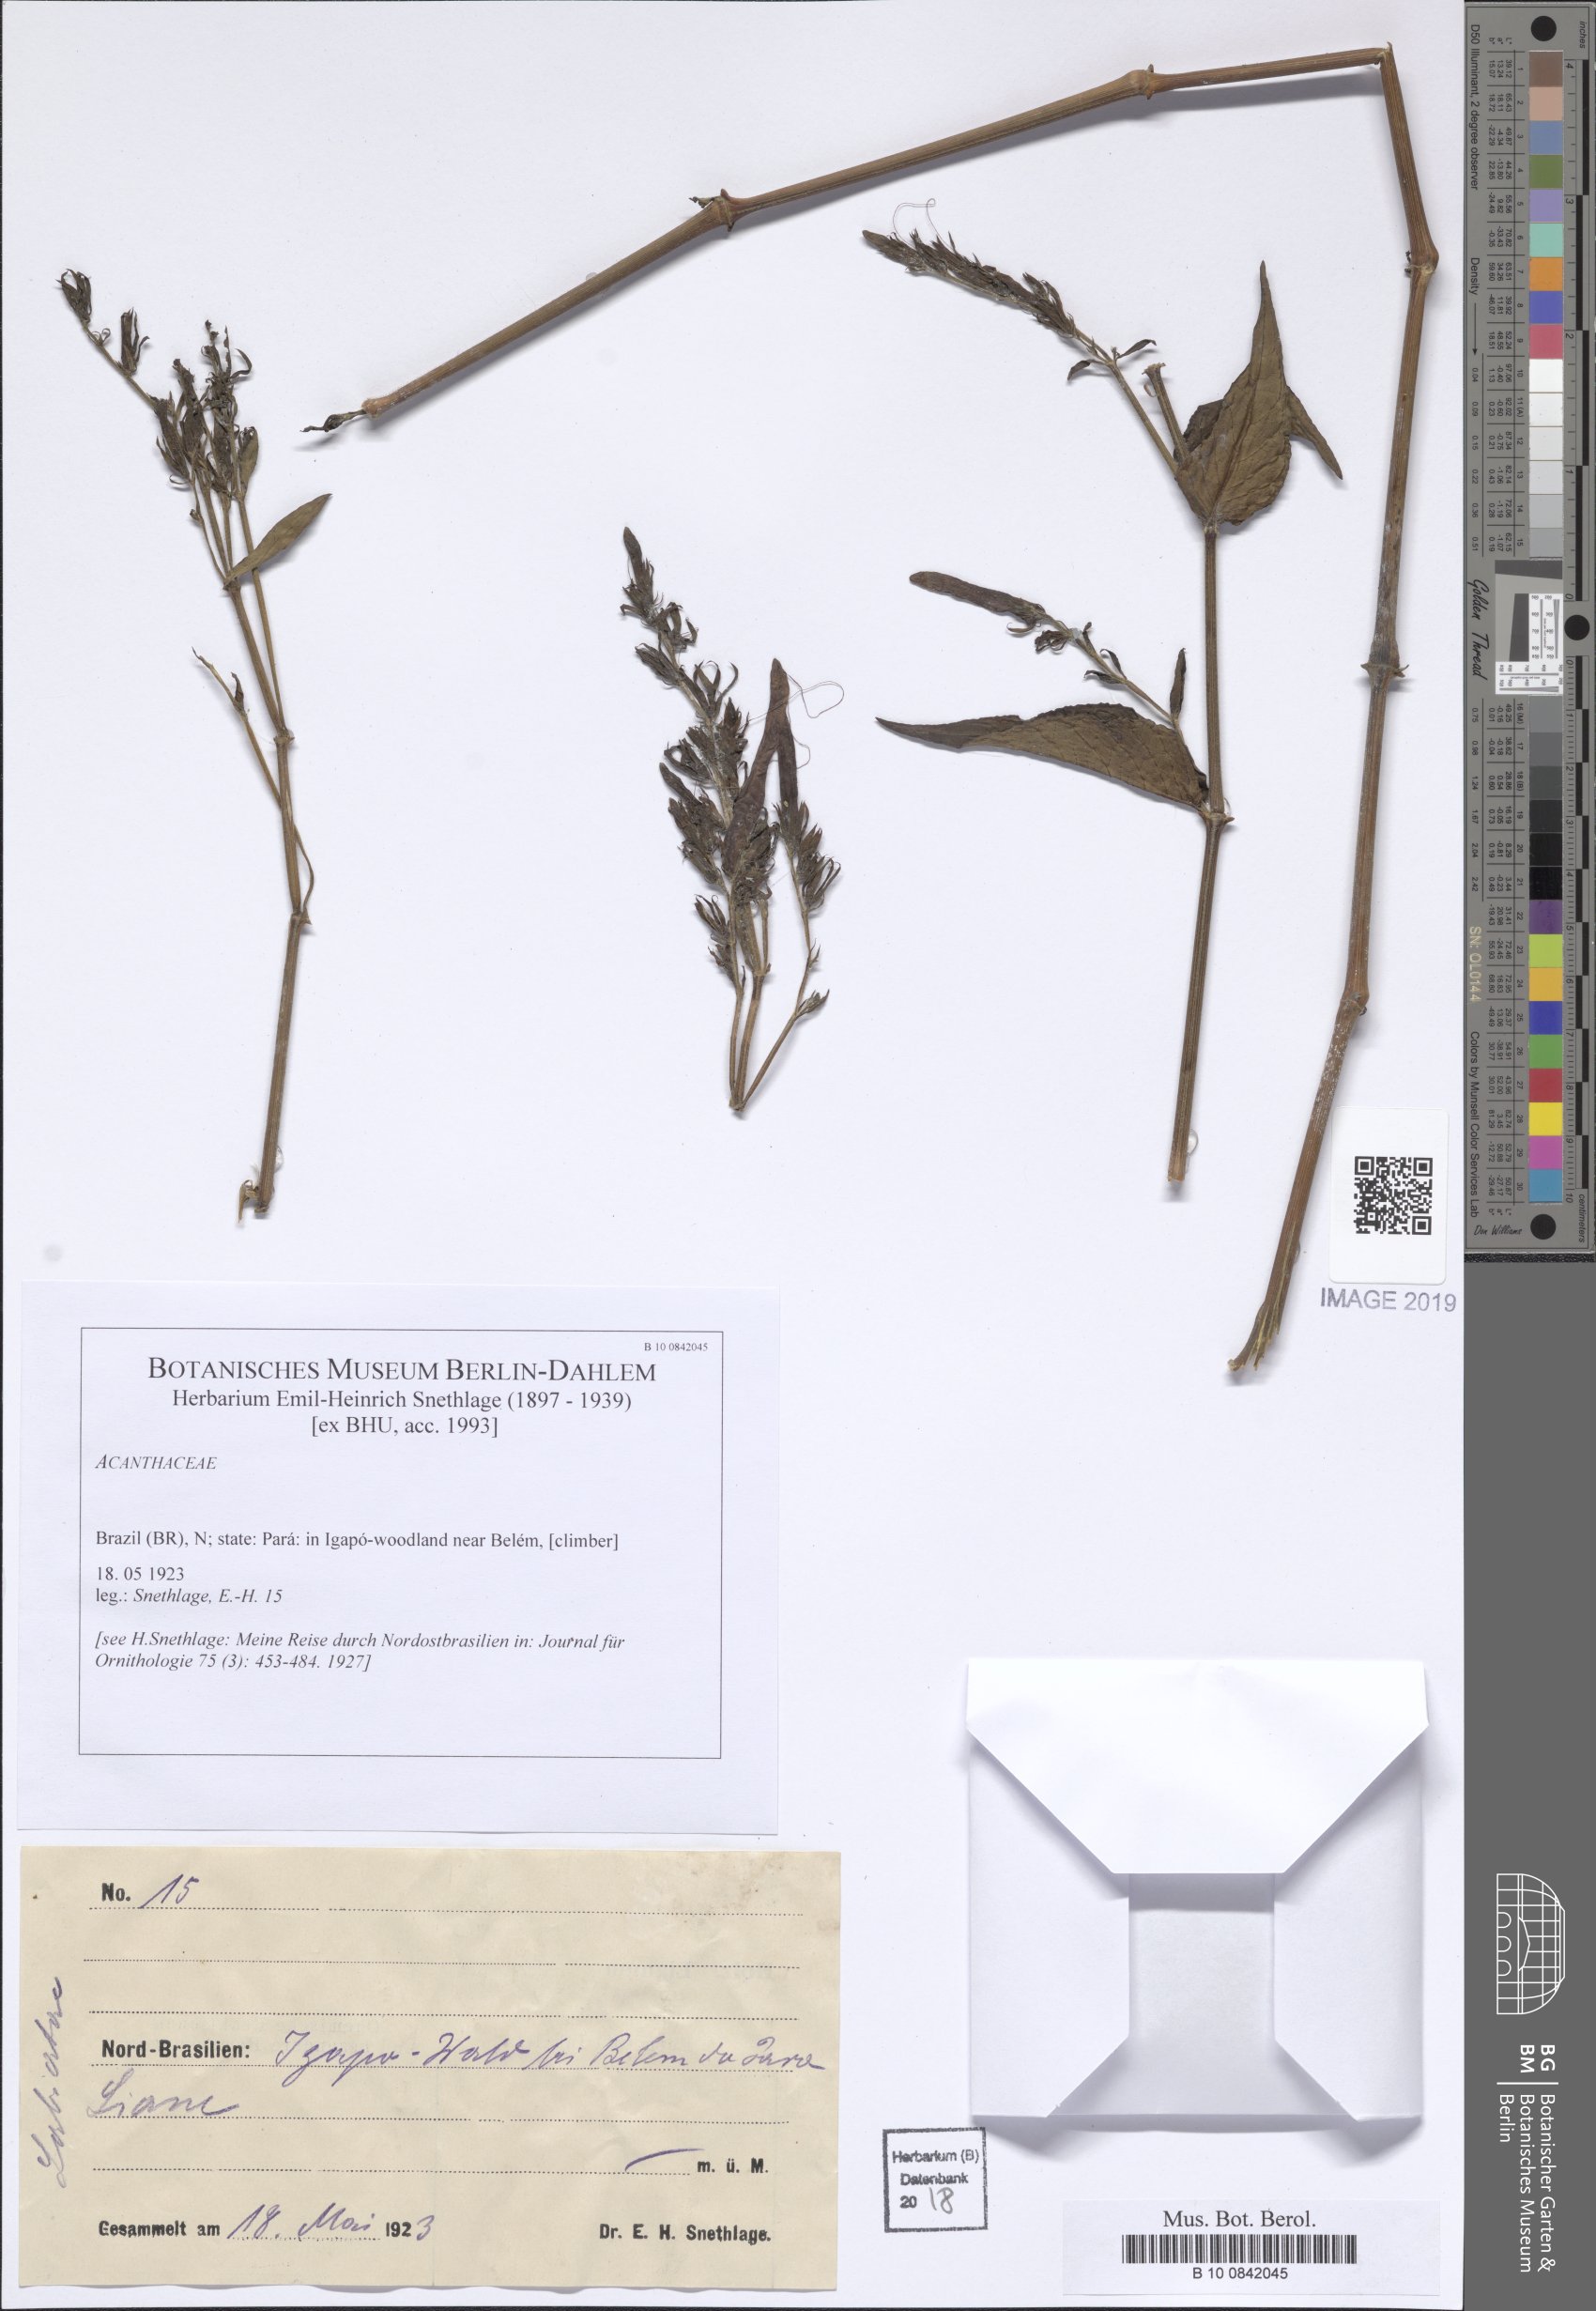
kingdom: Plantae
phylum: Tracheophyta
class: Magnoliopsida
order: Lamiales
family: Acanthaceae
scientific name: Acanthaceae
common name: Acanthaceae
